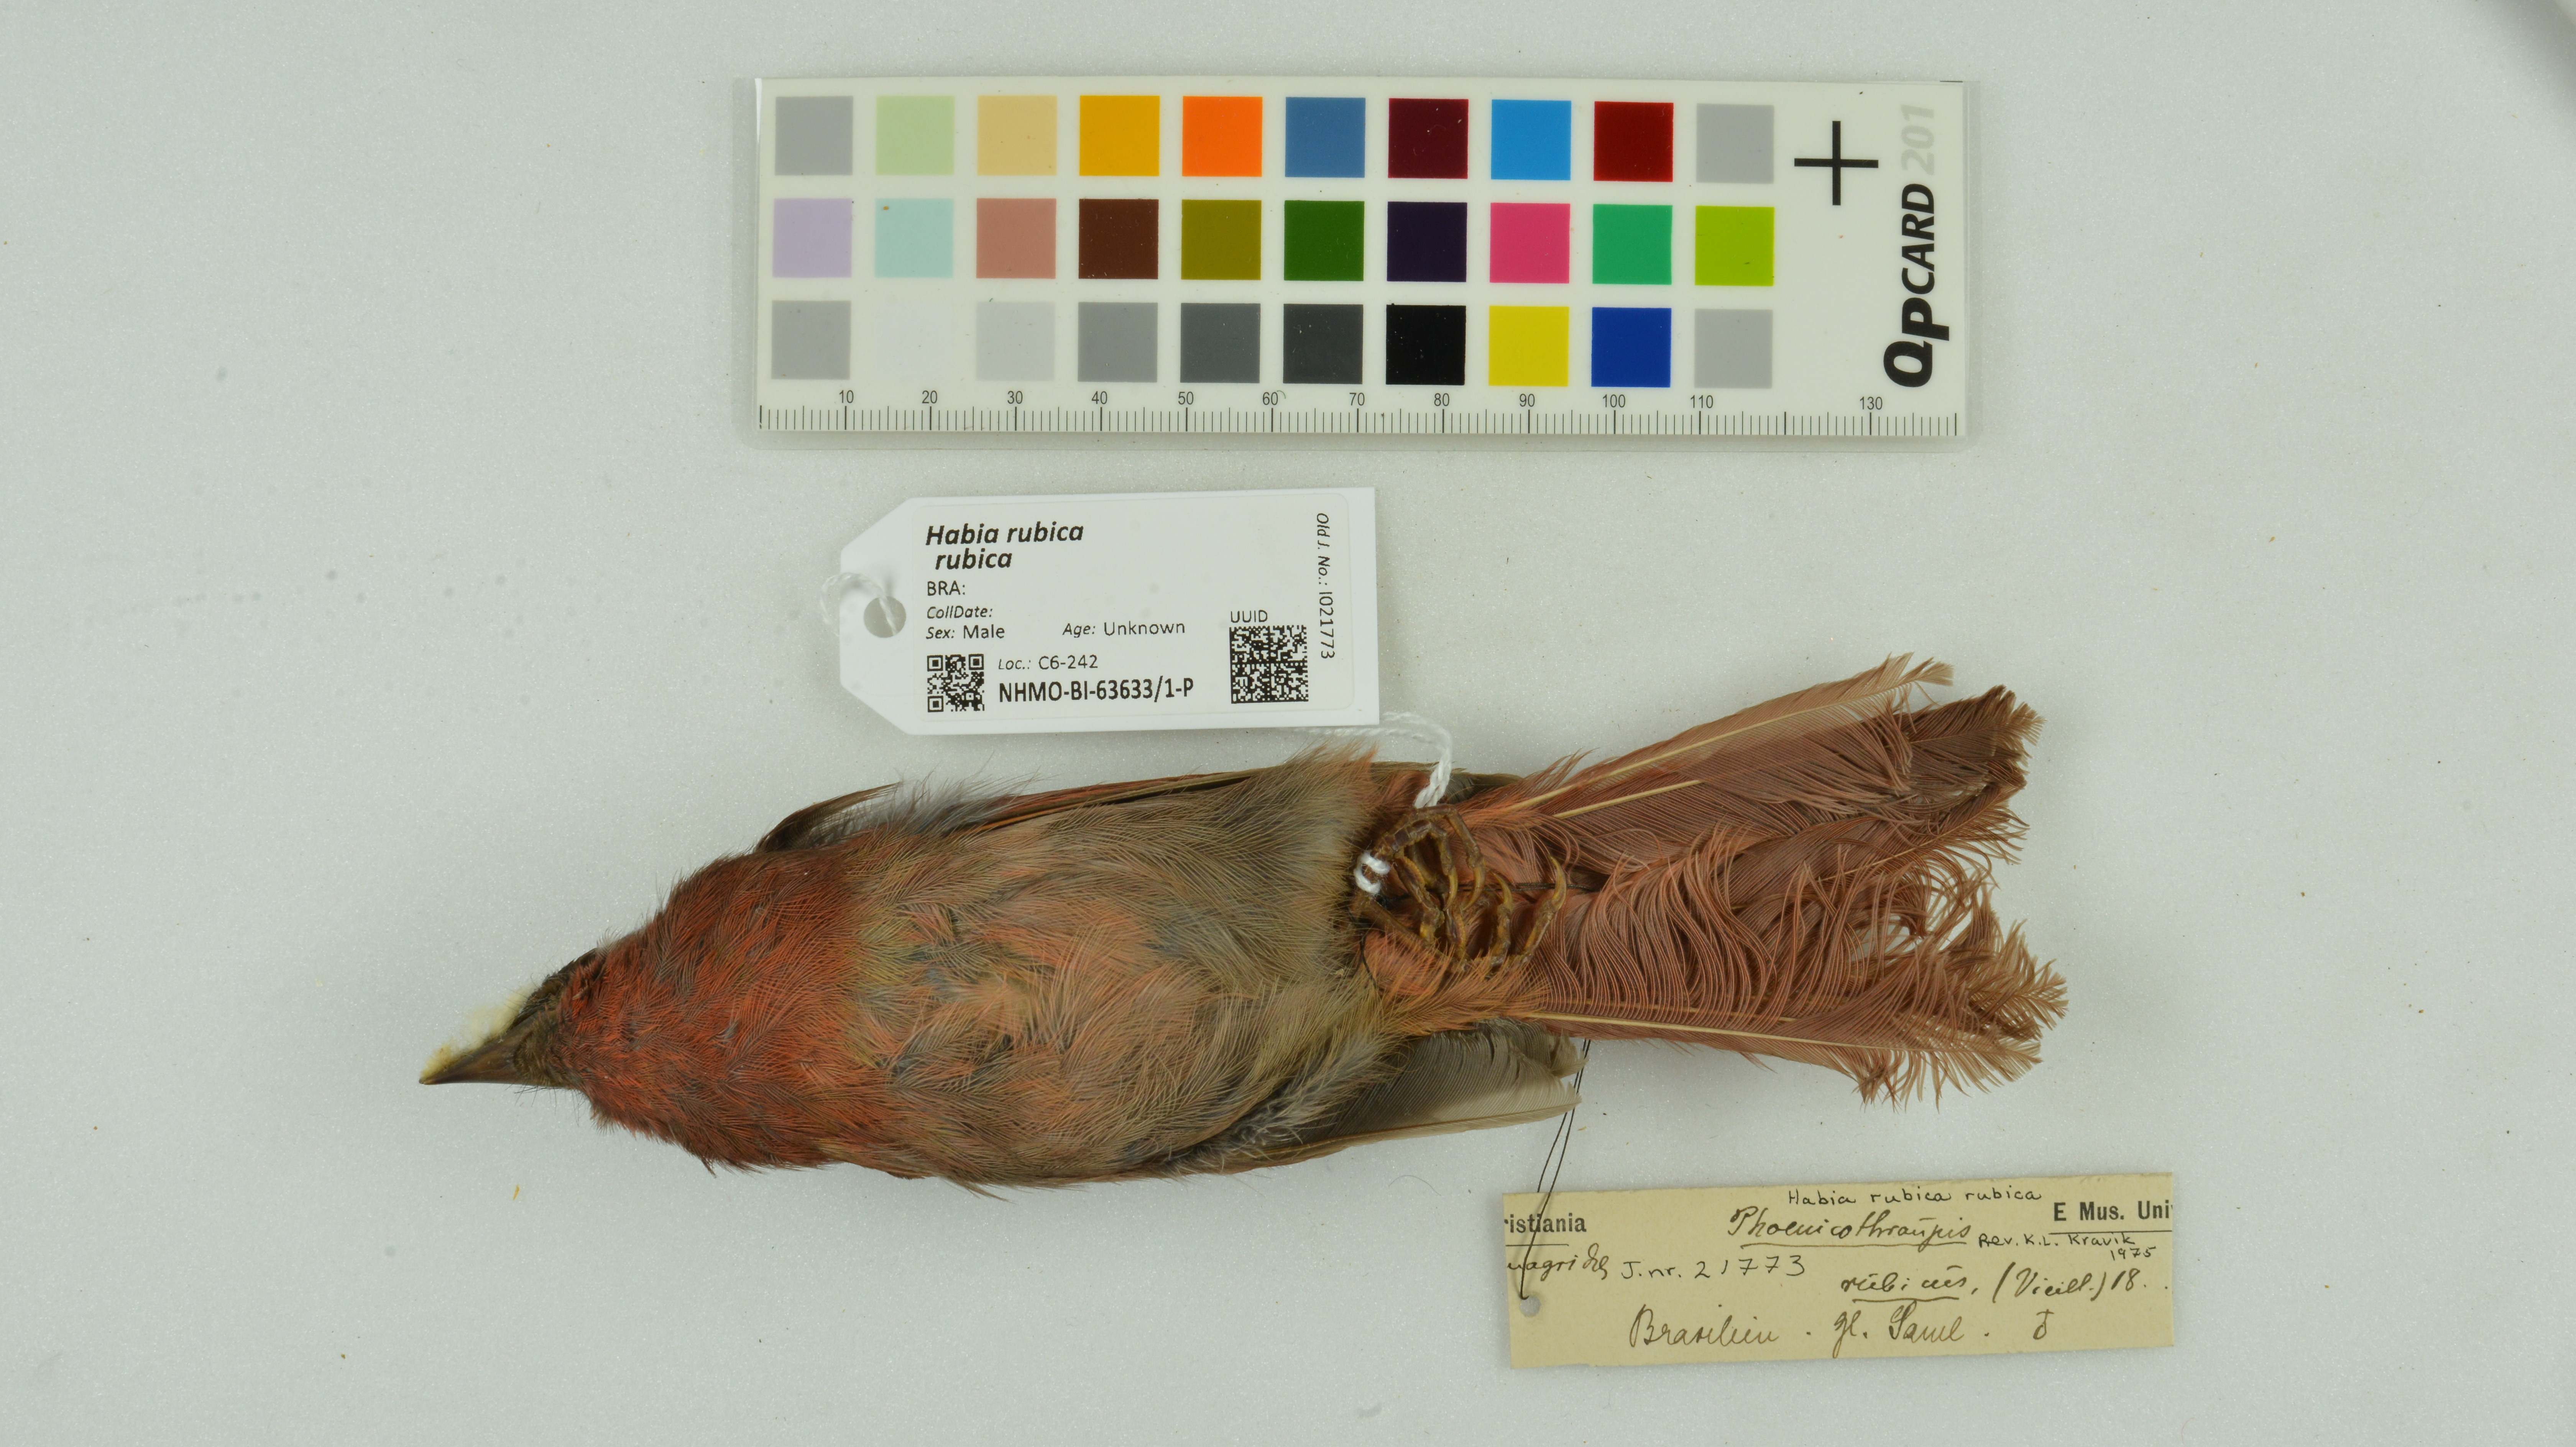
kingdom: Animalia
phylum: Chordata
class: Aves
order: Passeriformes
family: Cardinalidae
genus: Habia
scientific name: Habia rubica
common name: Red-crowned ant-tanager
